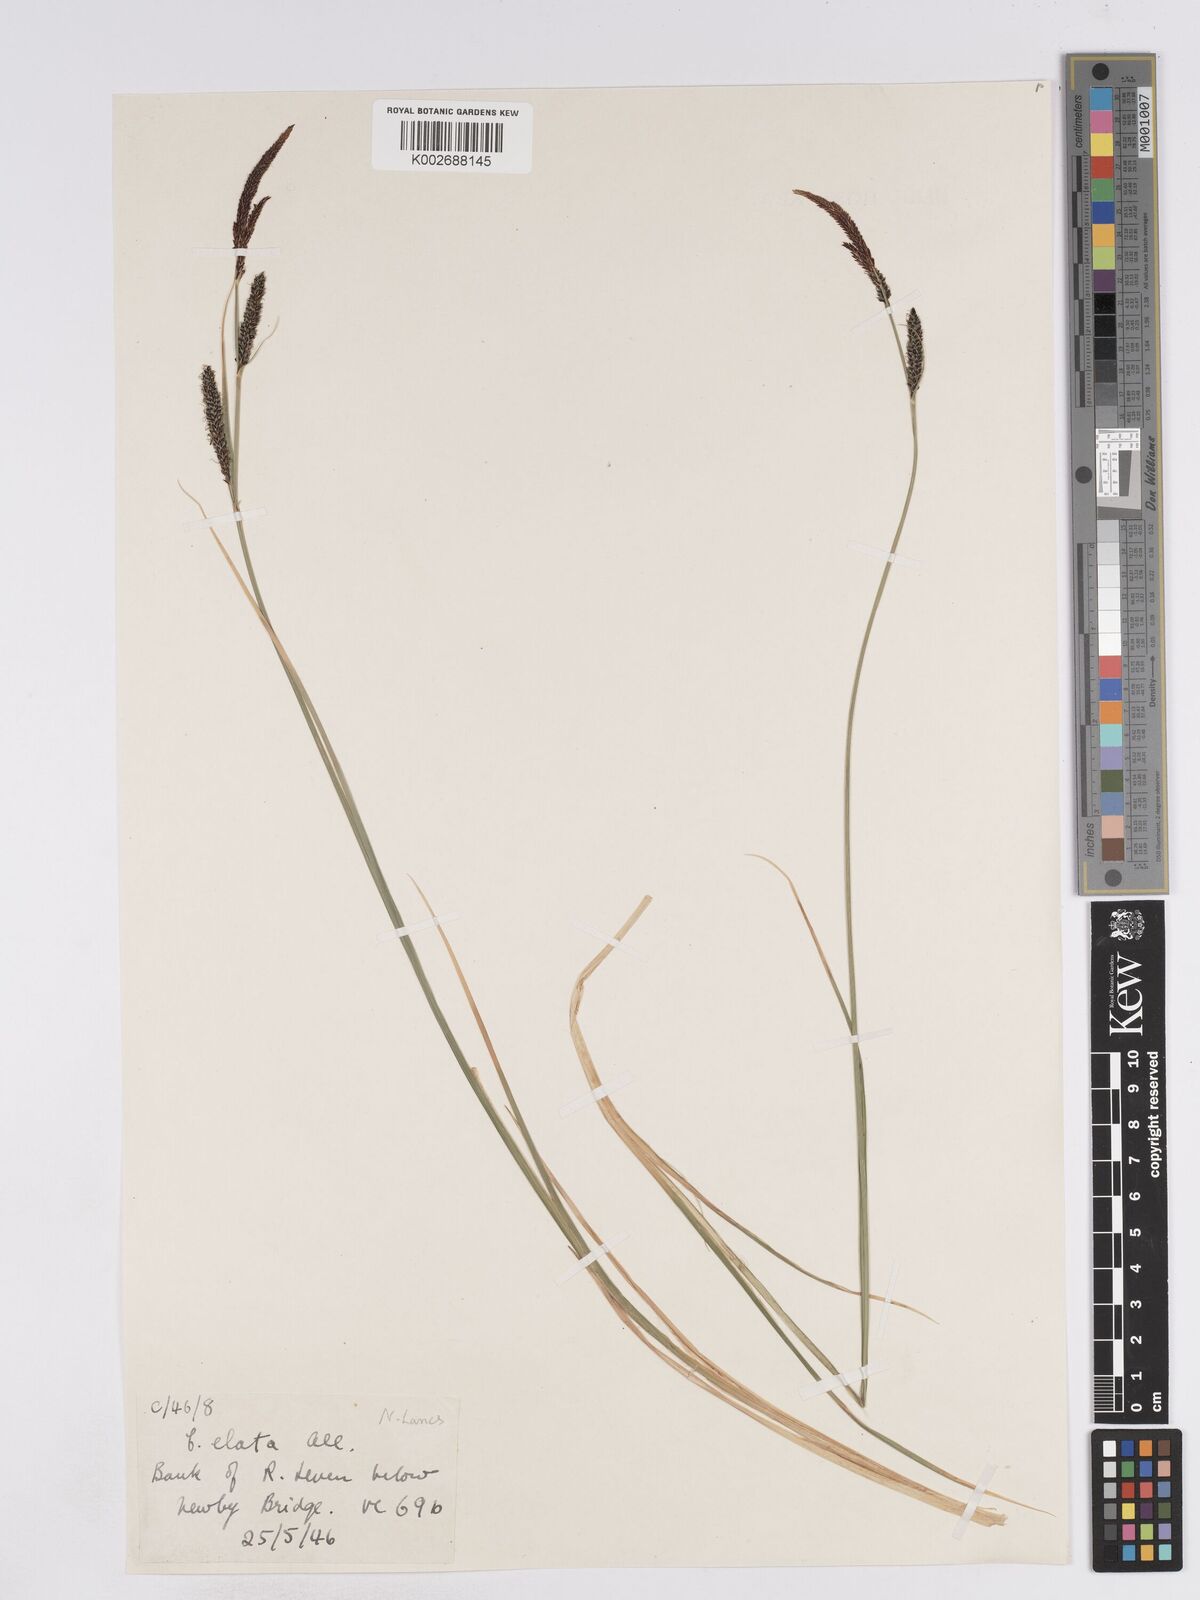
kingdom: Plantae
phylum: Tracheophyta
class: Liliopsida
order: Poales
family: Cyperaceae
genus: Carex
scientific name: Carex elata
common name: Tufted sedge
